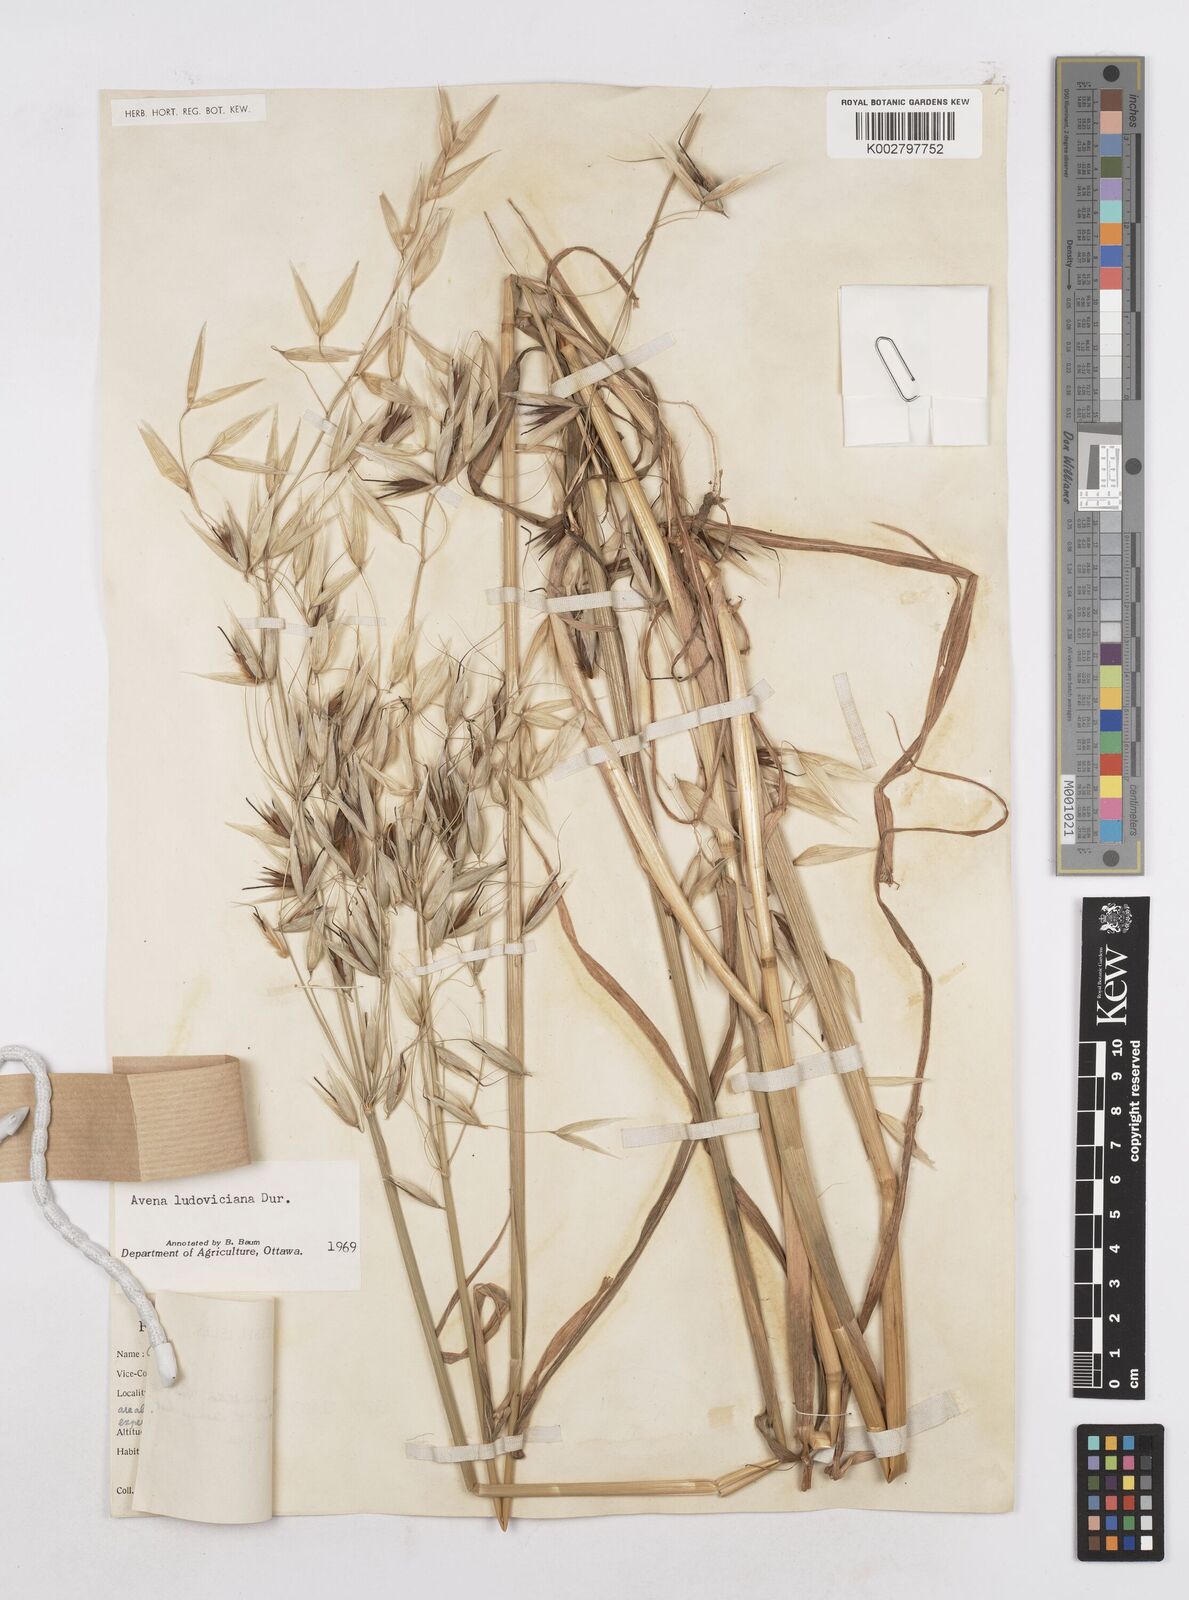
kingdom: Plantae
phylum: Tracheophyta
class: Liliopsida
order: Poales
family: Poaceae
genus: Avena
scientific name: Avena sterilis
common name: Animated oat
